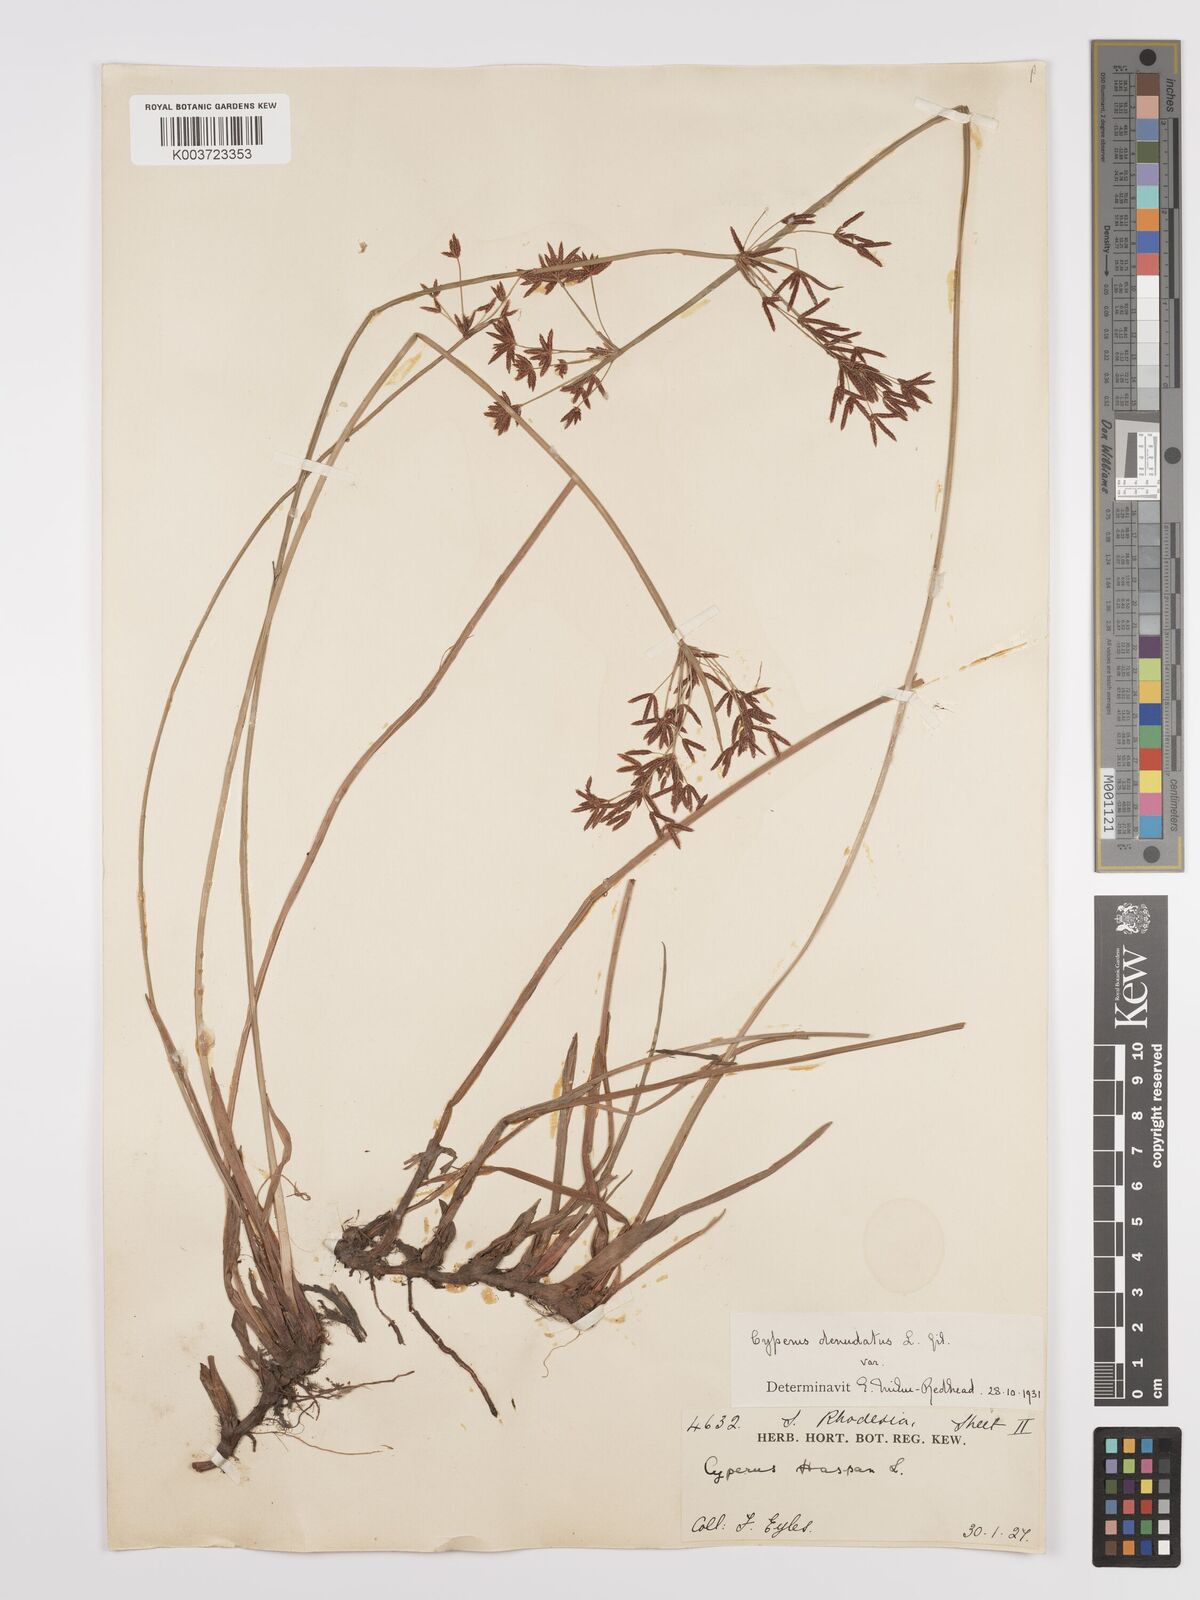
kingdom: Plantae
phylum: Tracheophyta
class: Liliopsida
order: Poales
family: Cyperaceae
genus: Cyperus
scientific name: Cyperus denudatus
